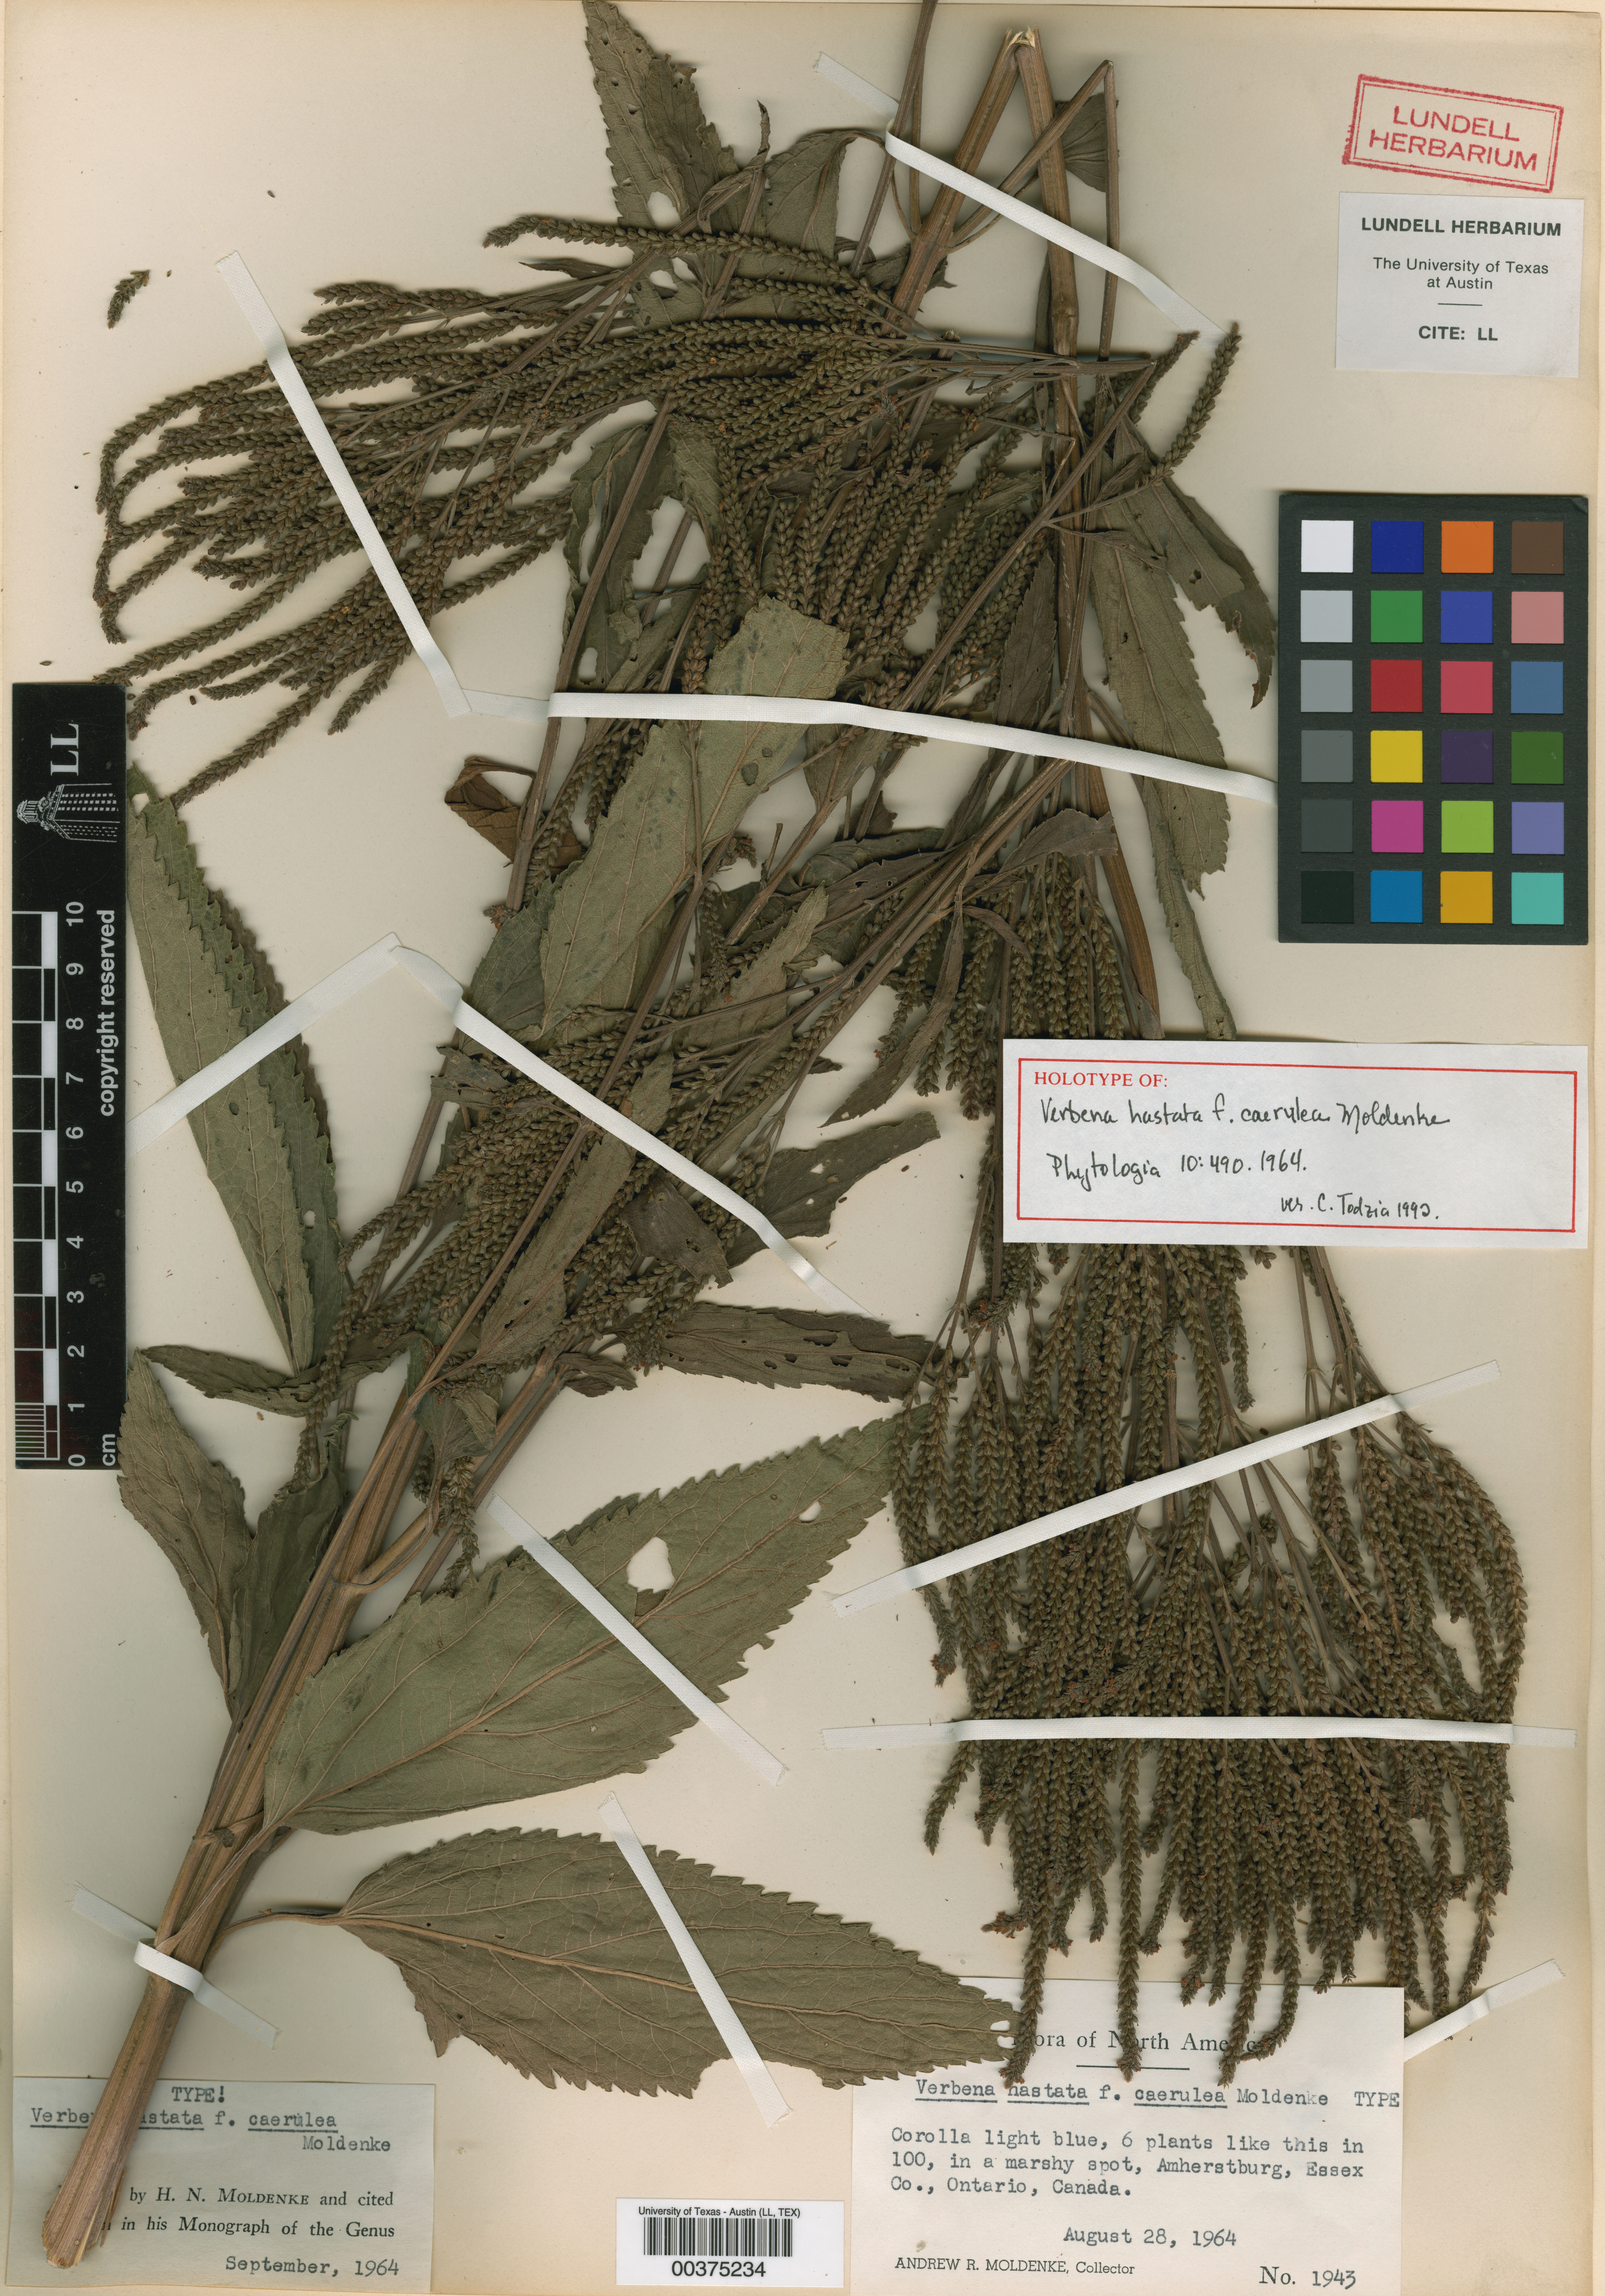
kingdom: Plantae
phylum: Tracheophyta
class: Magnoliopsida
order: Malpighiales
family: Hypericaceae
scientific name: Hypericaceae
